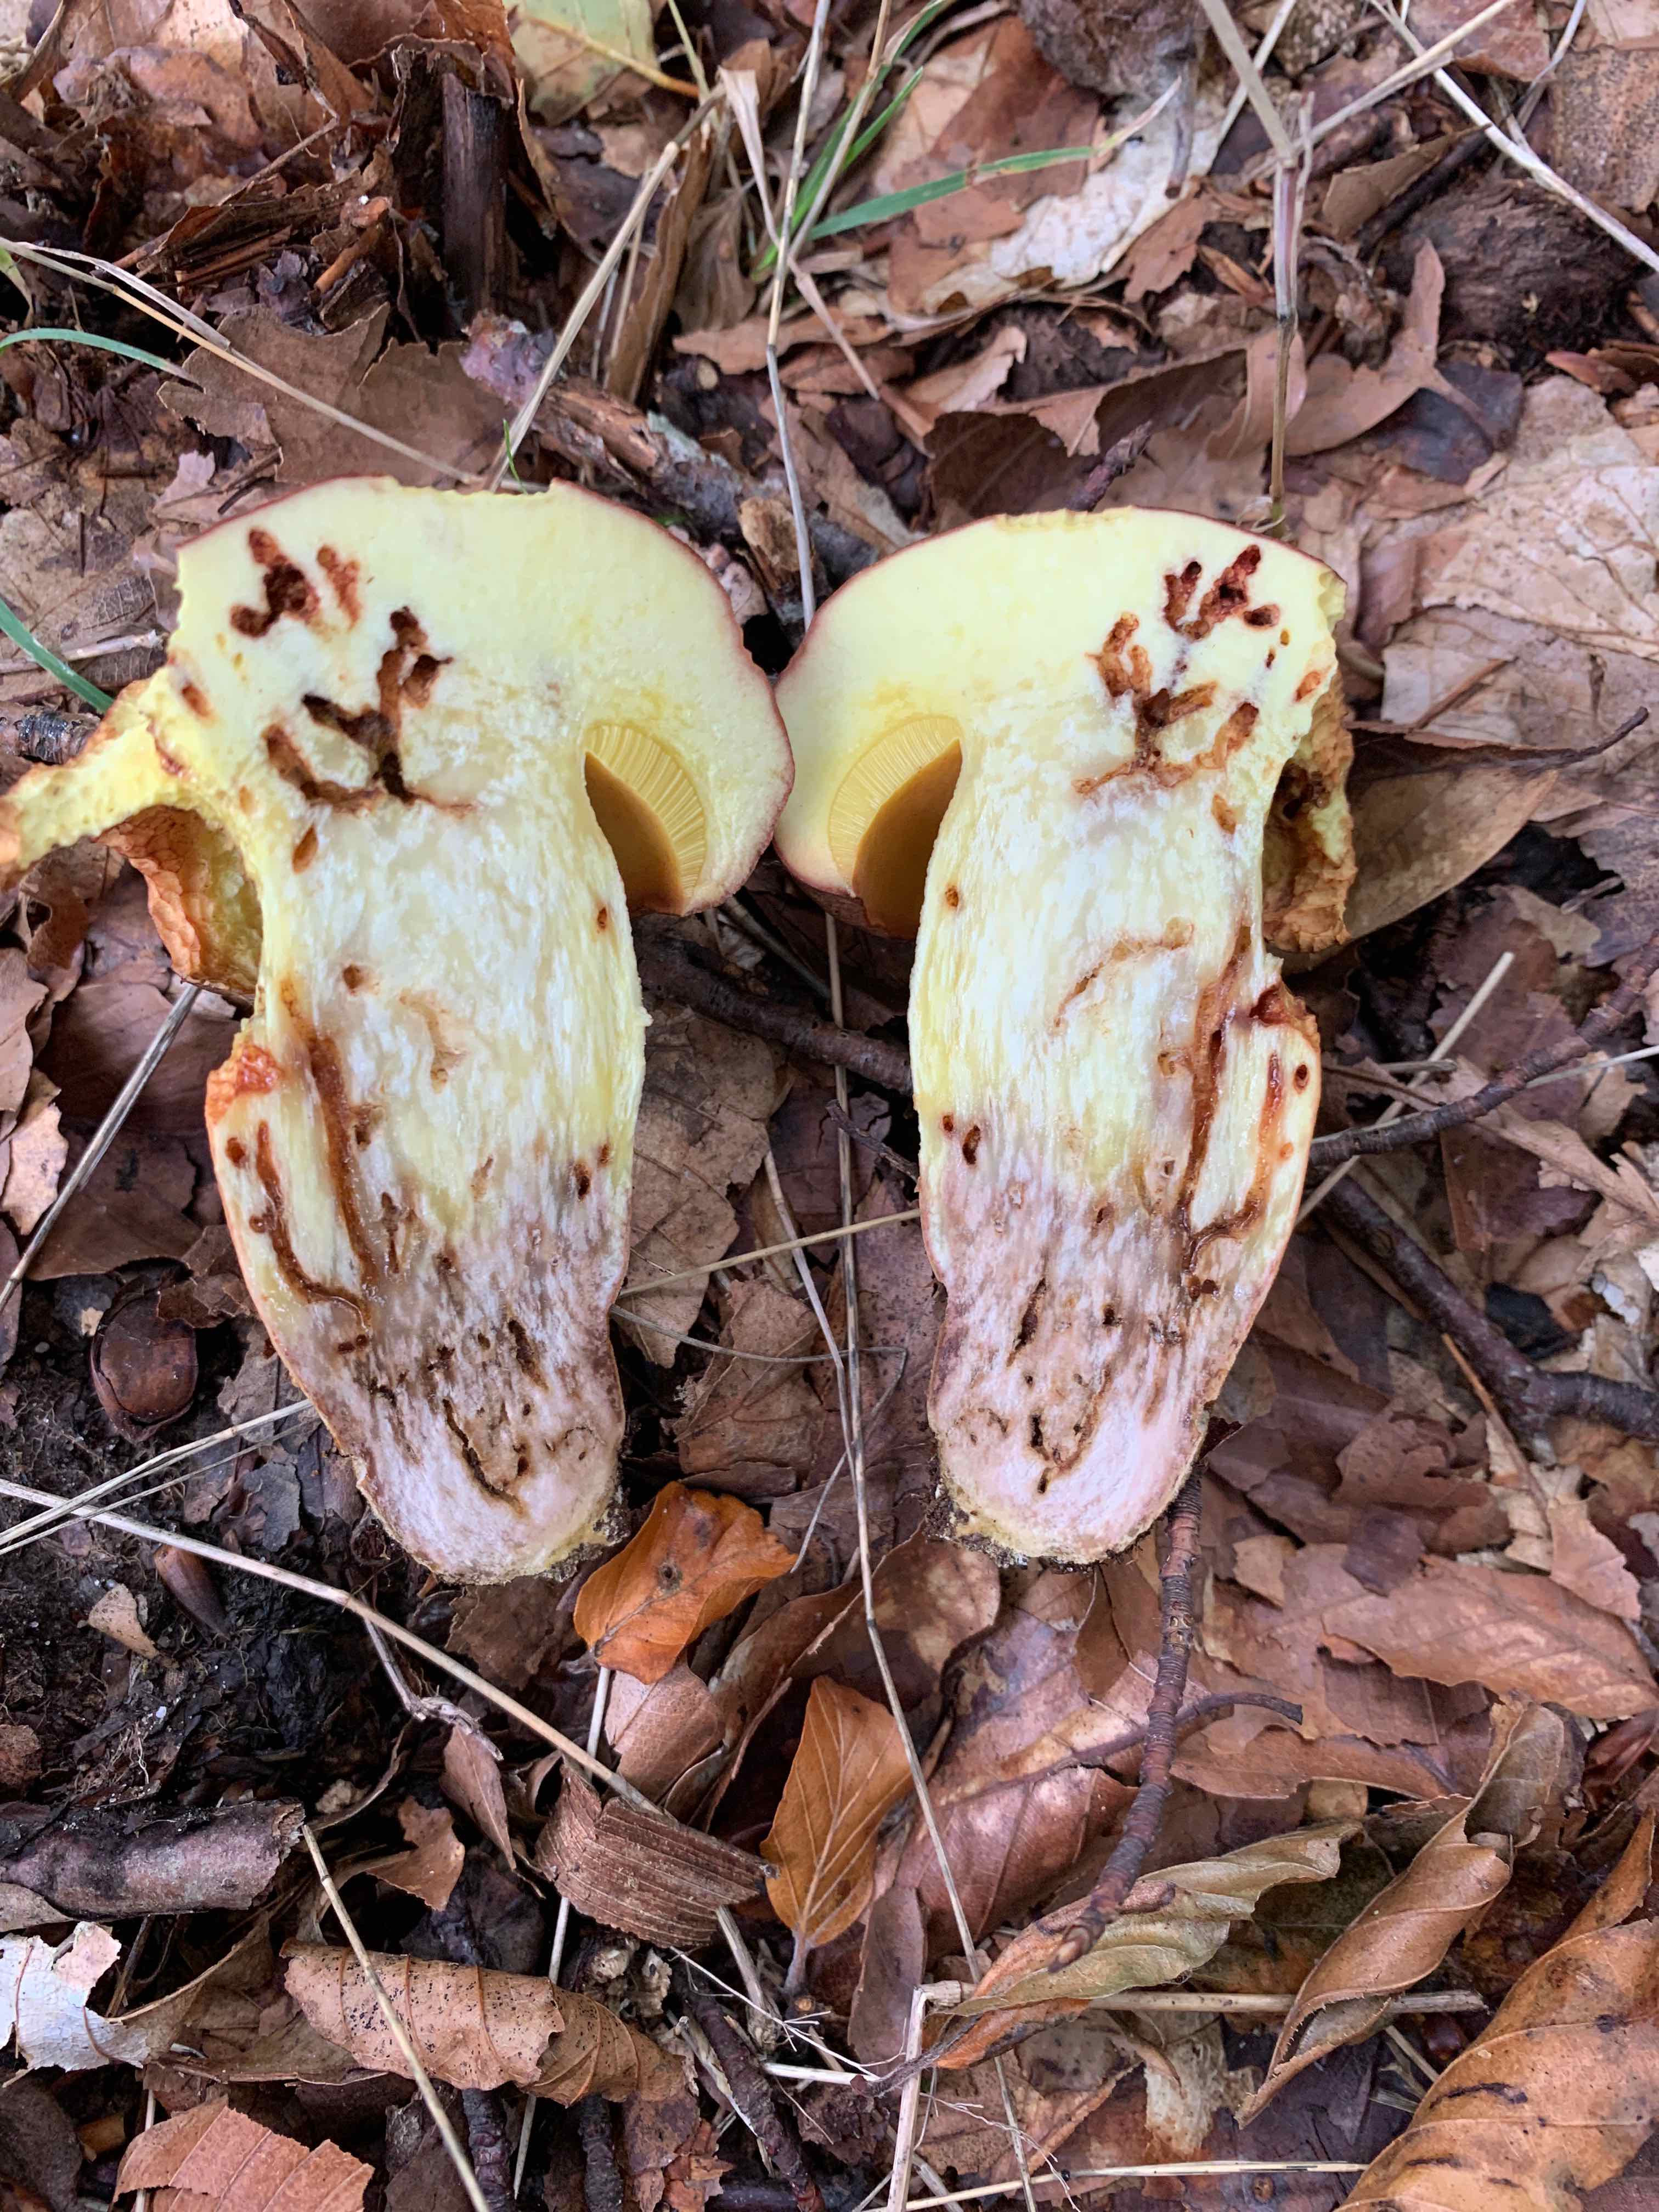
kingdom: Fungi
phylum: Basidiomycota
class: Agaricomycetes
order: Boletales
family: Boletaceae
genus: Butyriboletus
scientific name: Butyriboletus appendiculatus
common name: tenstokket rørhat
